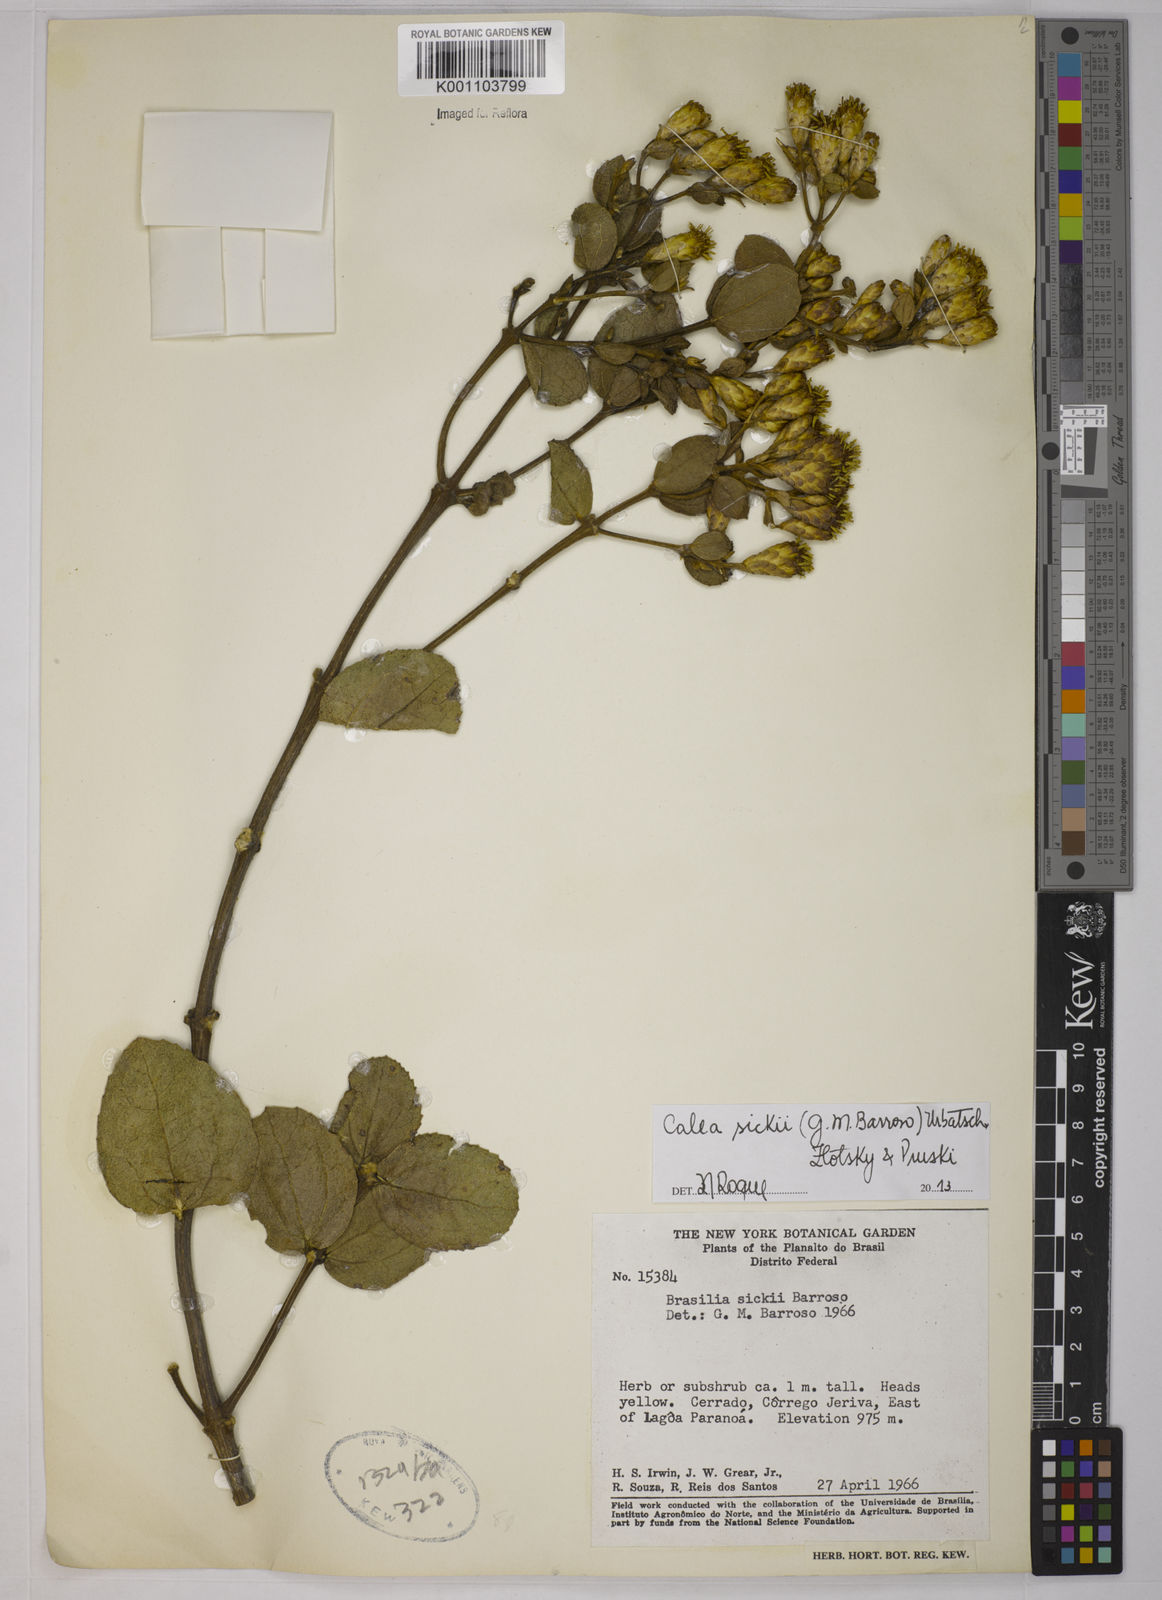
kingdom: Plantae
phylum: Tracheophyta
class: Magnoliopsida
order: Asterales
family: Asteraceae
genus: Calea
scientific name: Calea sickii
